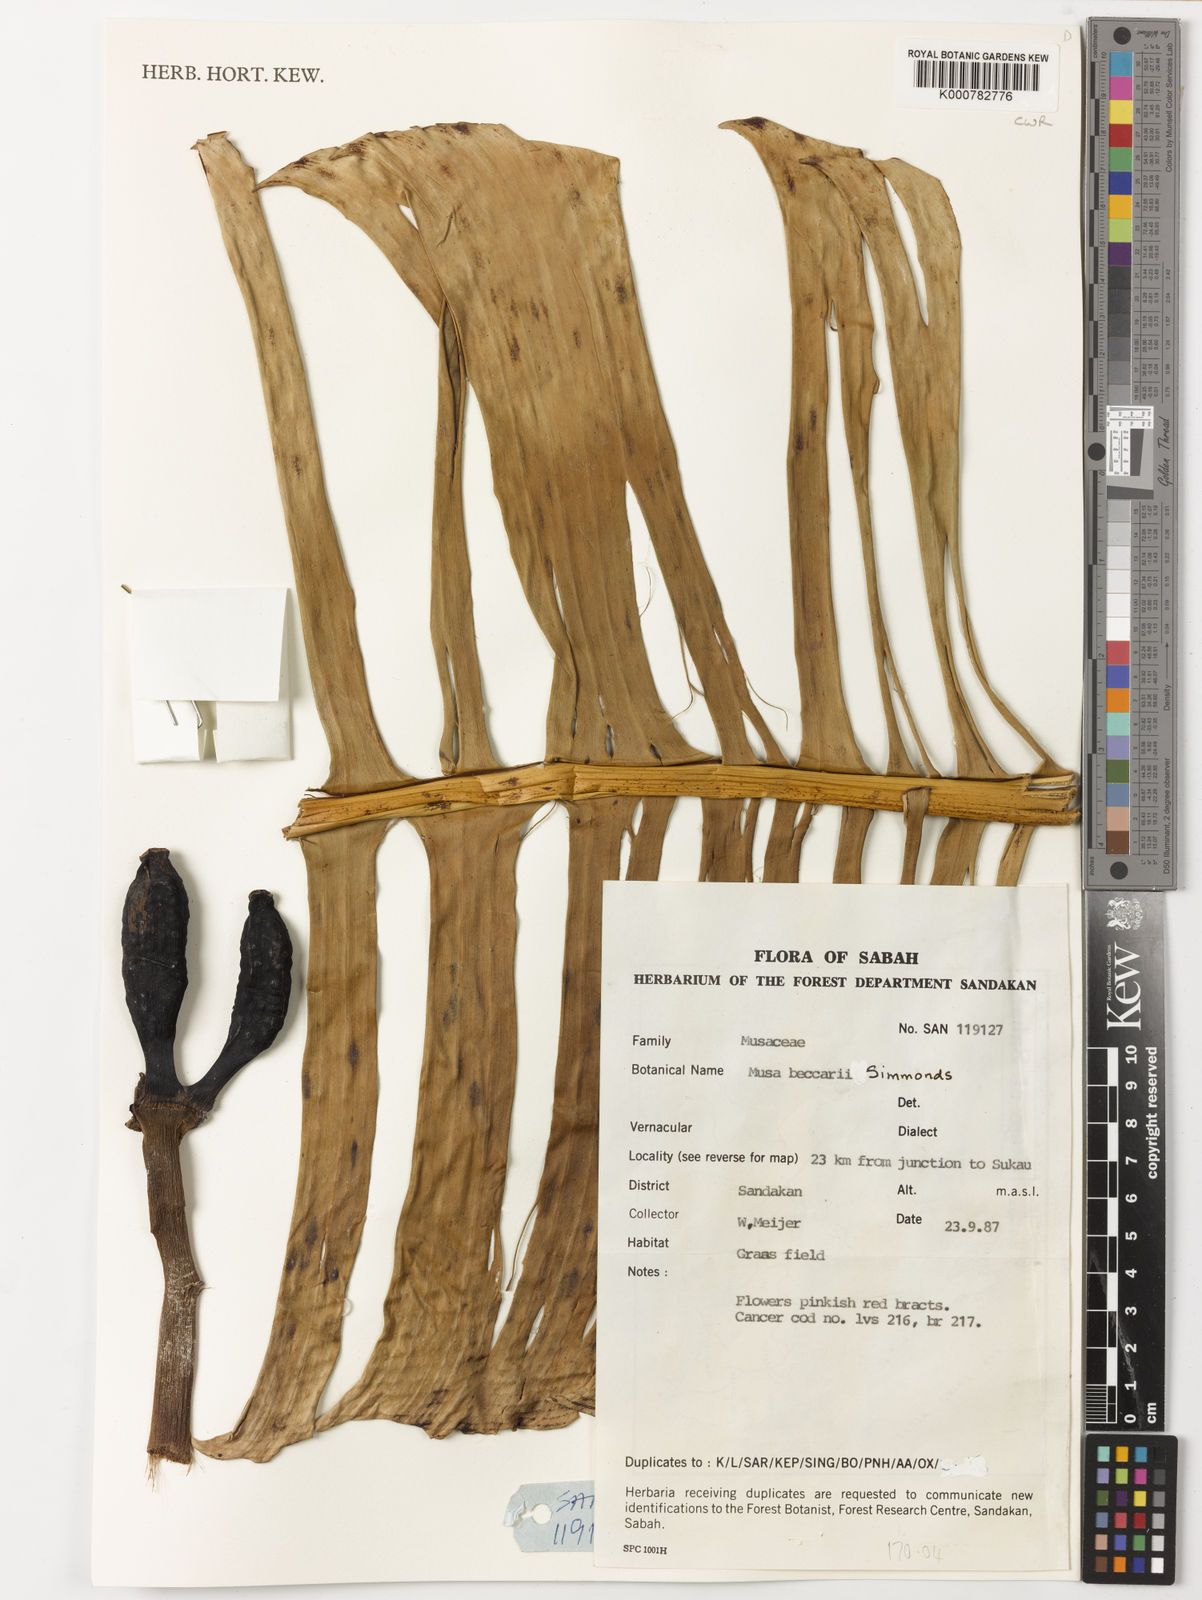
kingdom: Plantae
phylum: Tracheophyta
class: Liliopsida
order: Zingiberales
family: Musaceae
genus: Musa
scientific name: Musa beccarii
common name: Pisang tajak
